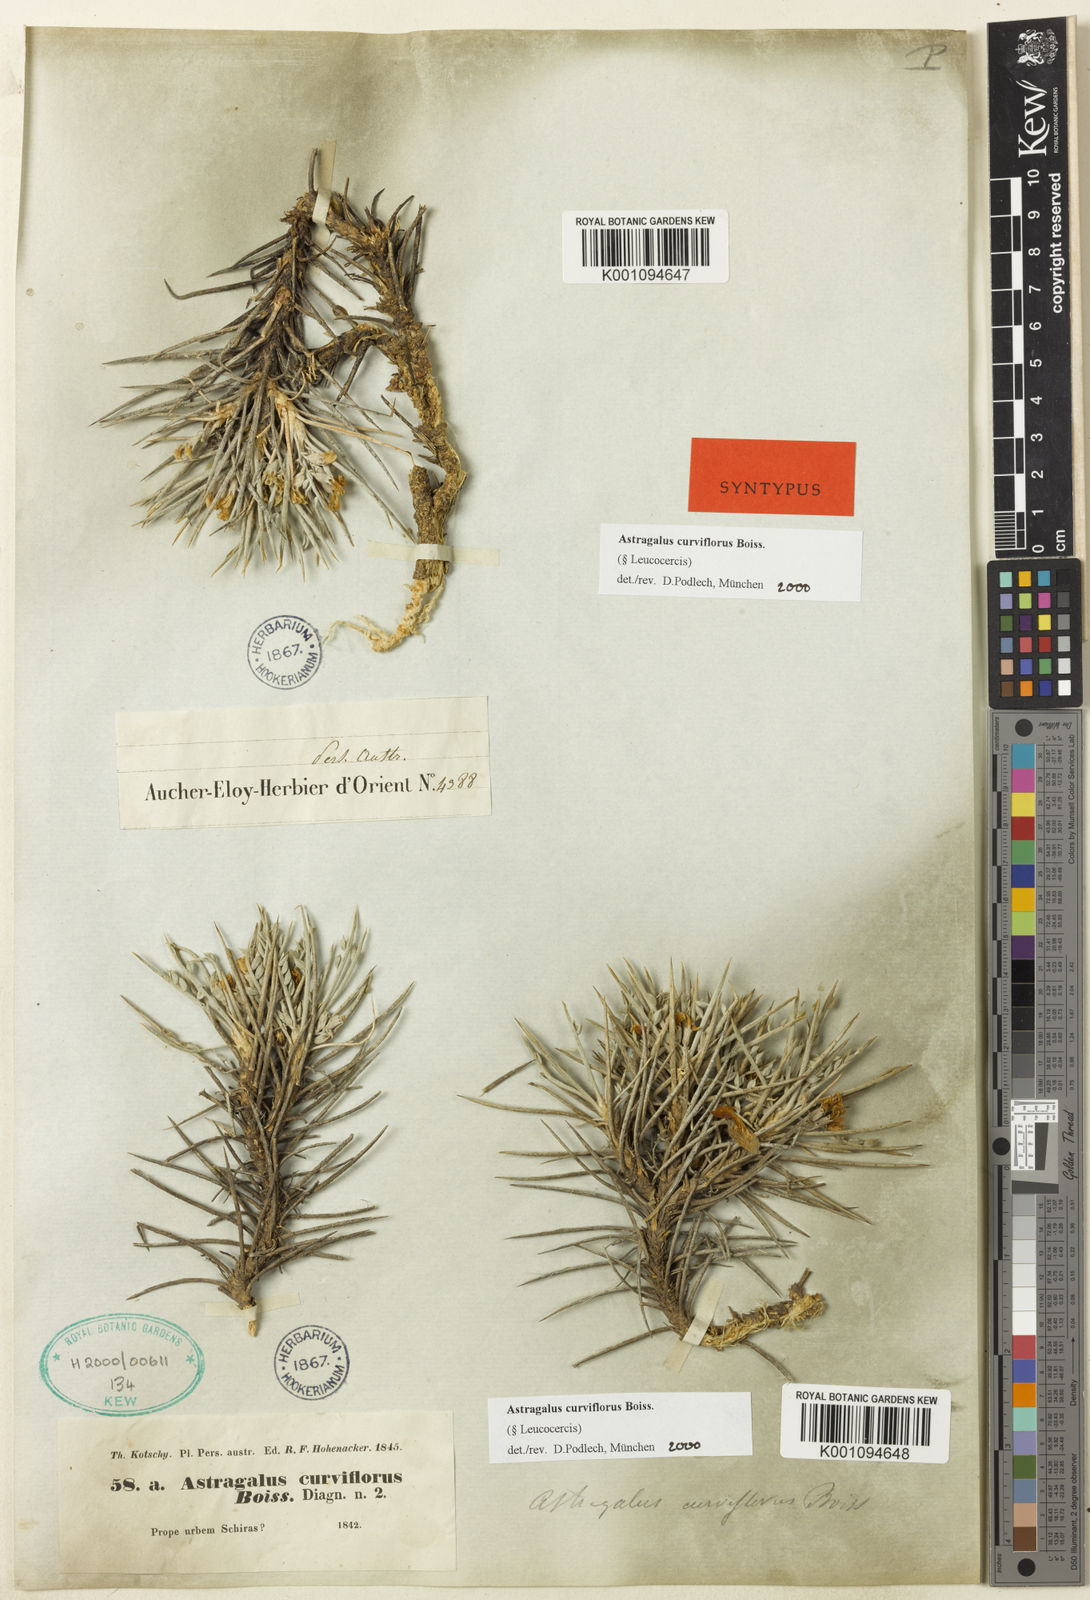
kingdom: Plantae
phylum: Tracheophyta
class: Magnoliopsida
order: Fabales
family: Fabaceae
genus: Astragalus
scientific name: Astragalus
